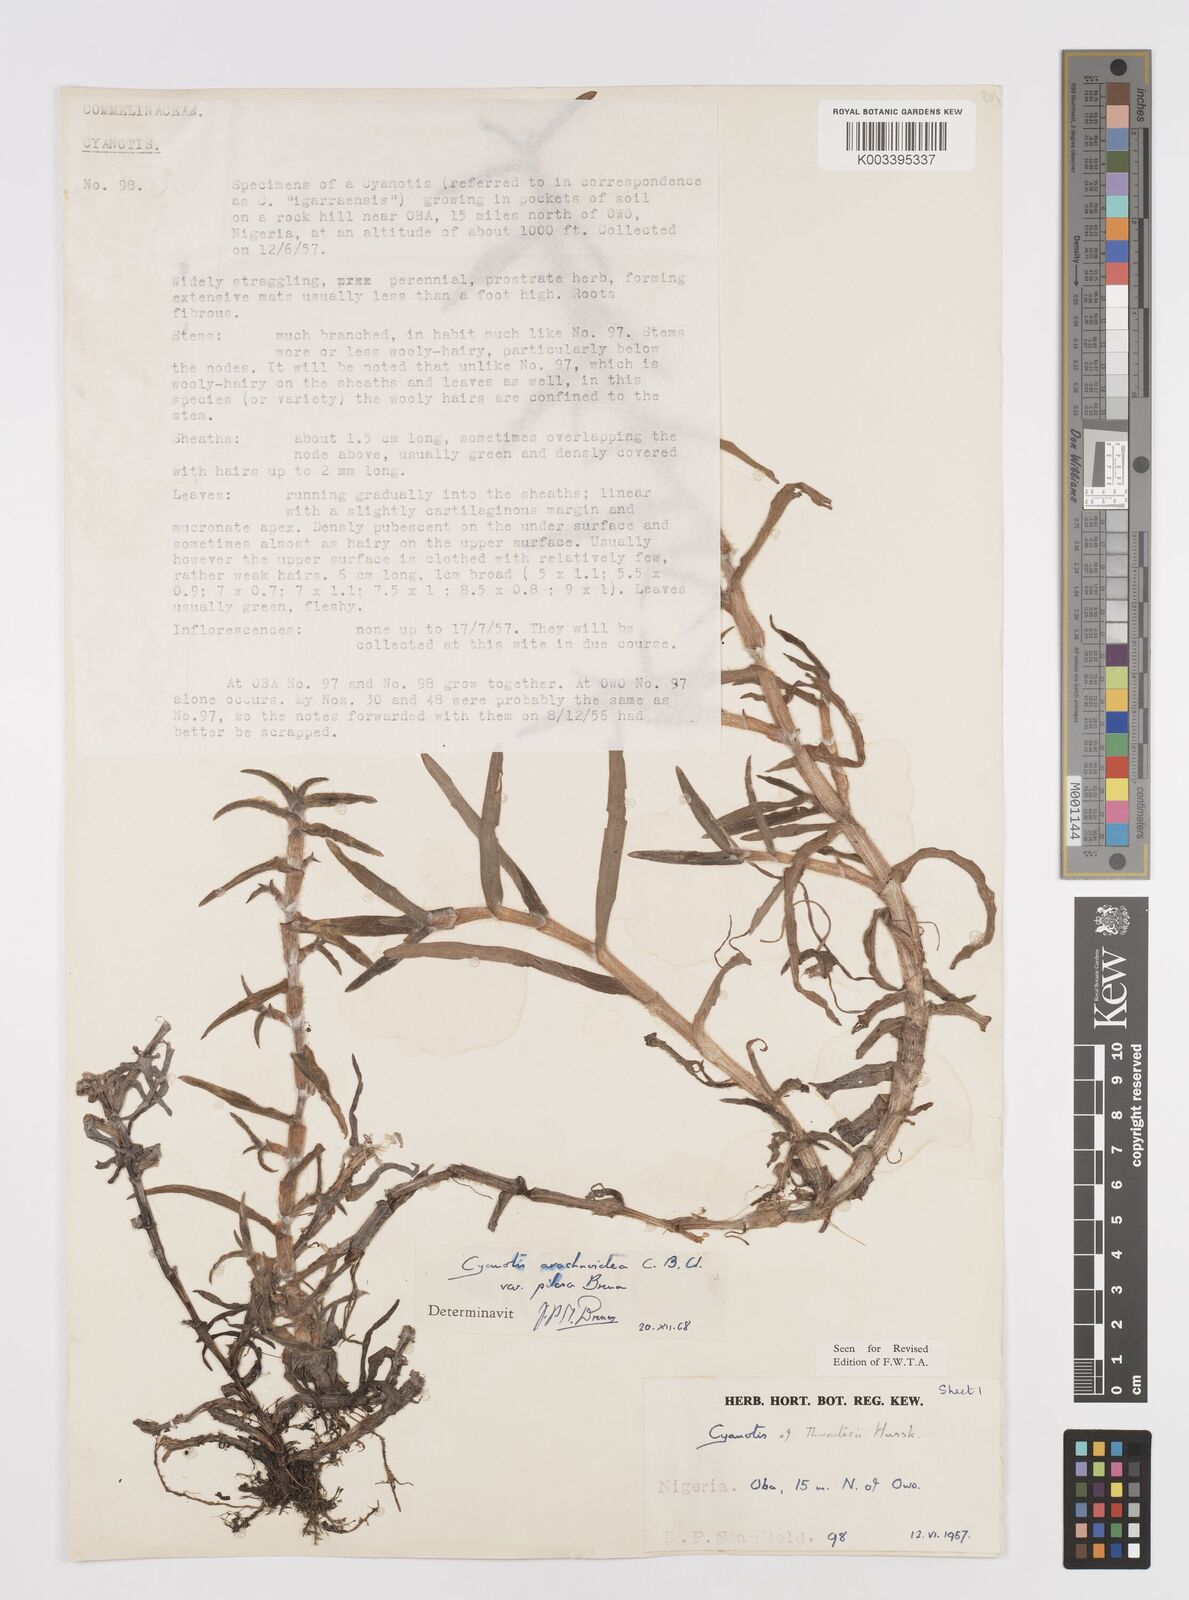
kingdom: Plantae
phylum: Tracheophyta
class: Liliopsida
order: Commelinales
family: Commelinaceae
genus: Cyanotis
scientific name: Cyanotis arachnoidea
